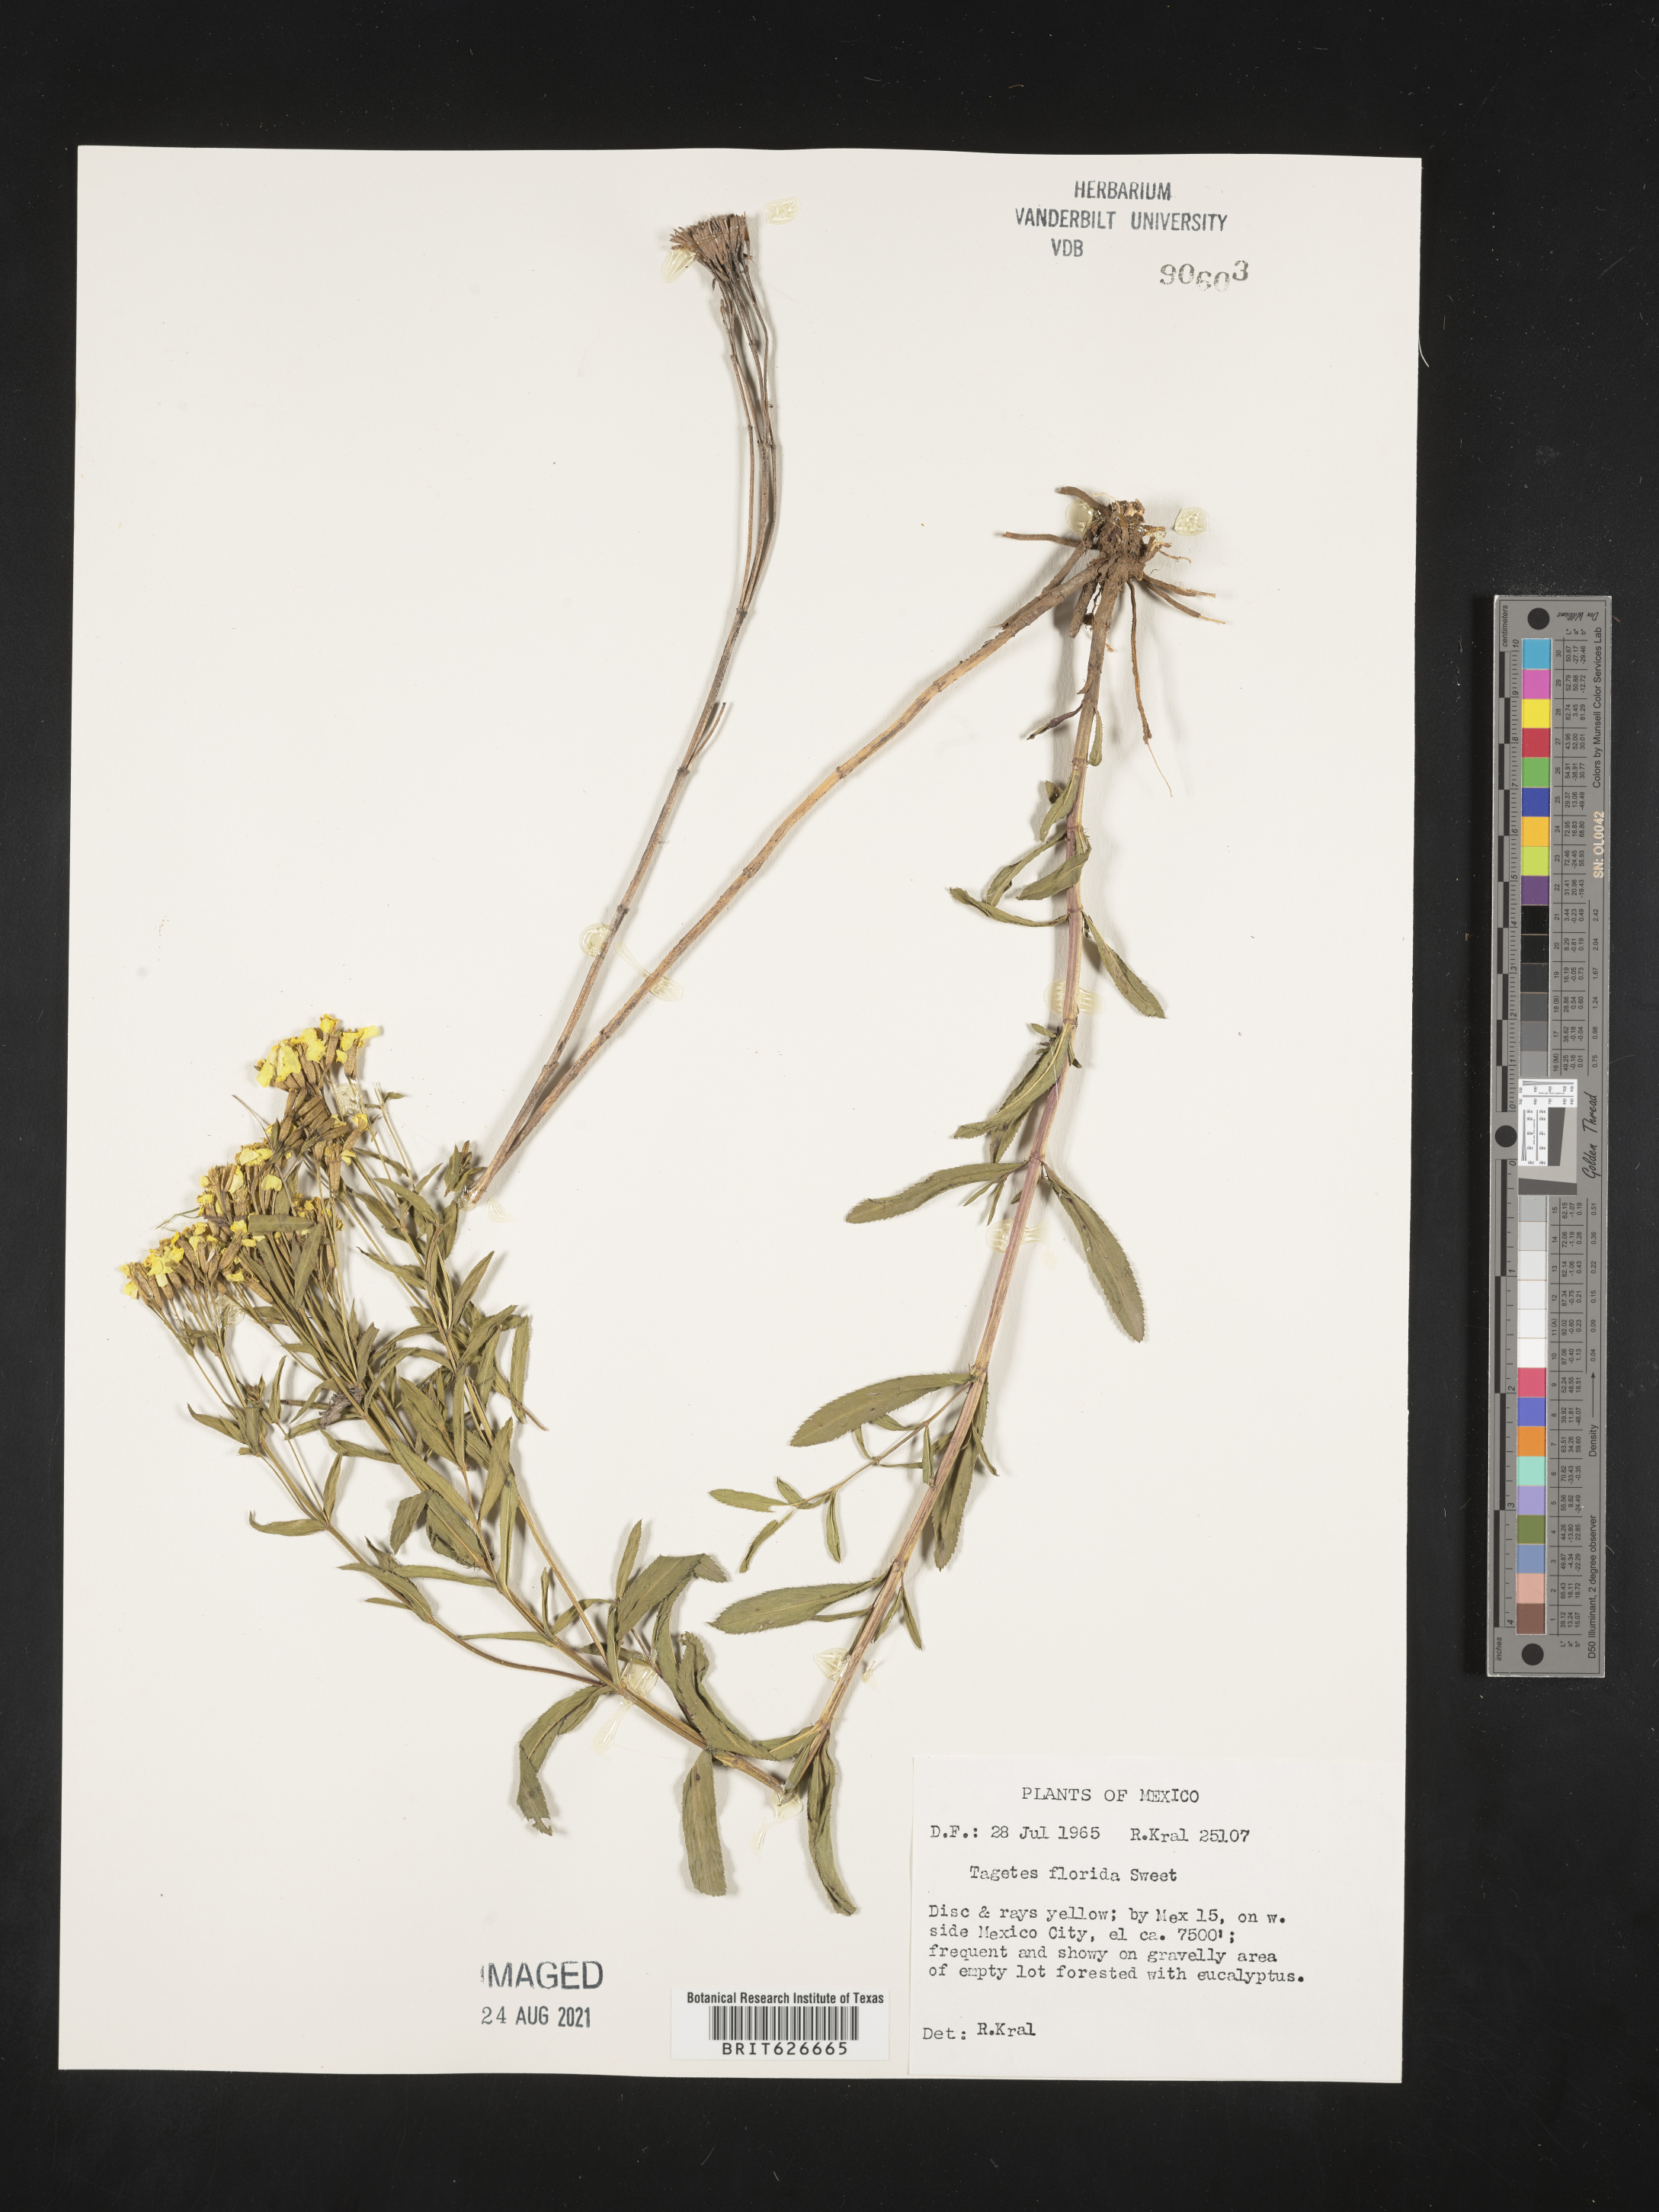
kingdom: Plantae
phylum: Tracheophyta
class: Magnoliopsida
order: Asterales
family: Asteraceae
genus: Tagetes
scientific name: Tagetes
